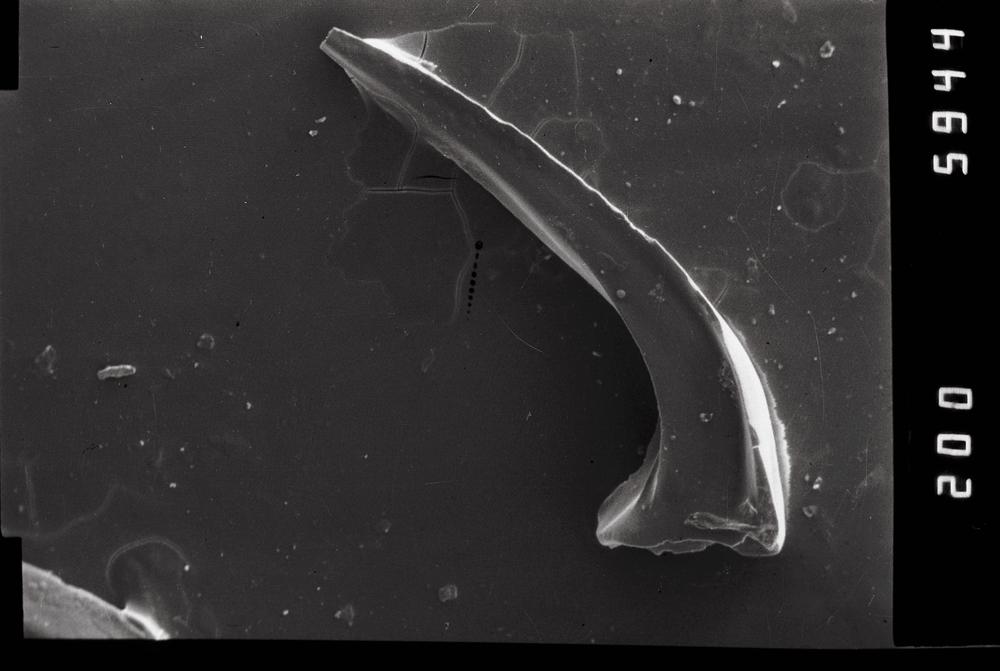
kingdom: Animalia
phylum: Chordata
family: Acodontidae
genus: Tripodus
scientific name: Tripodus
